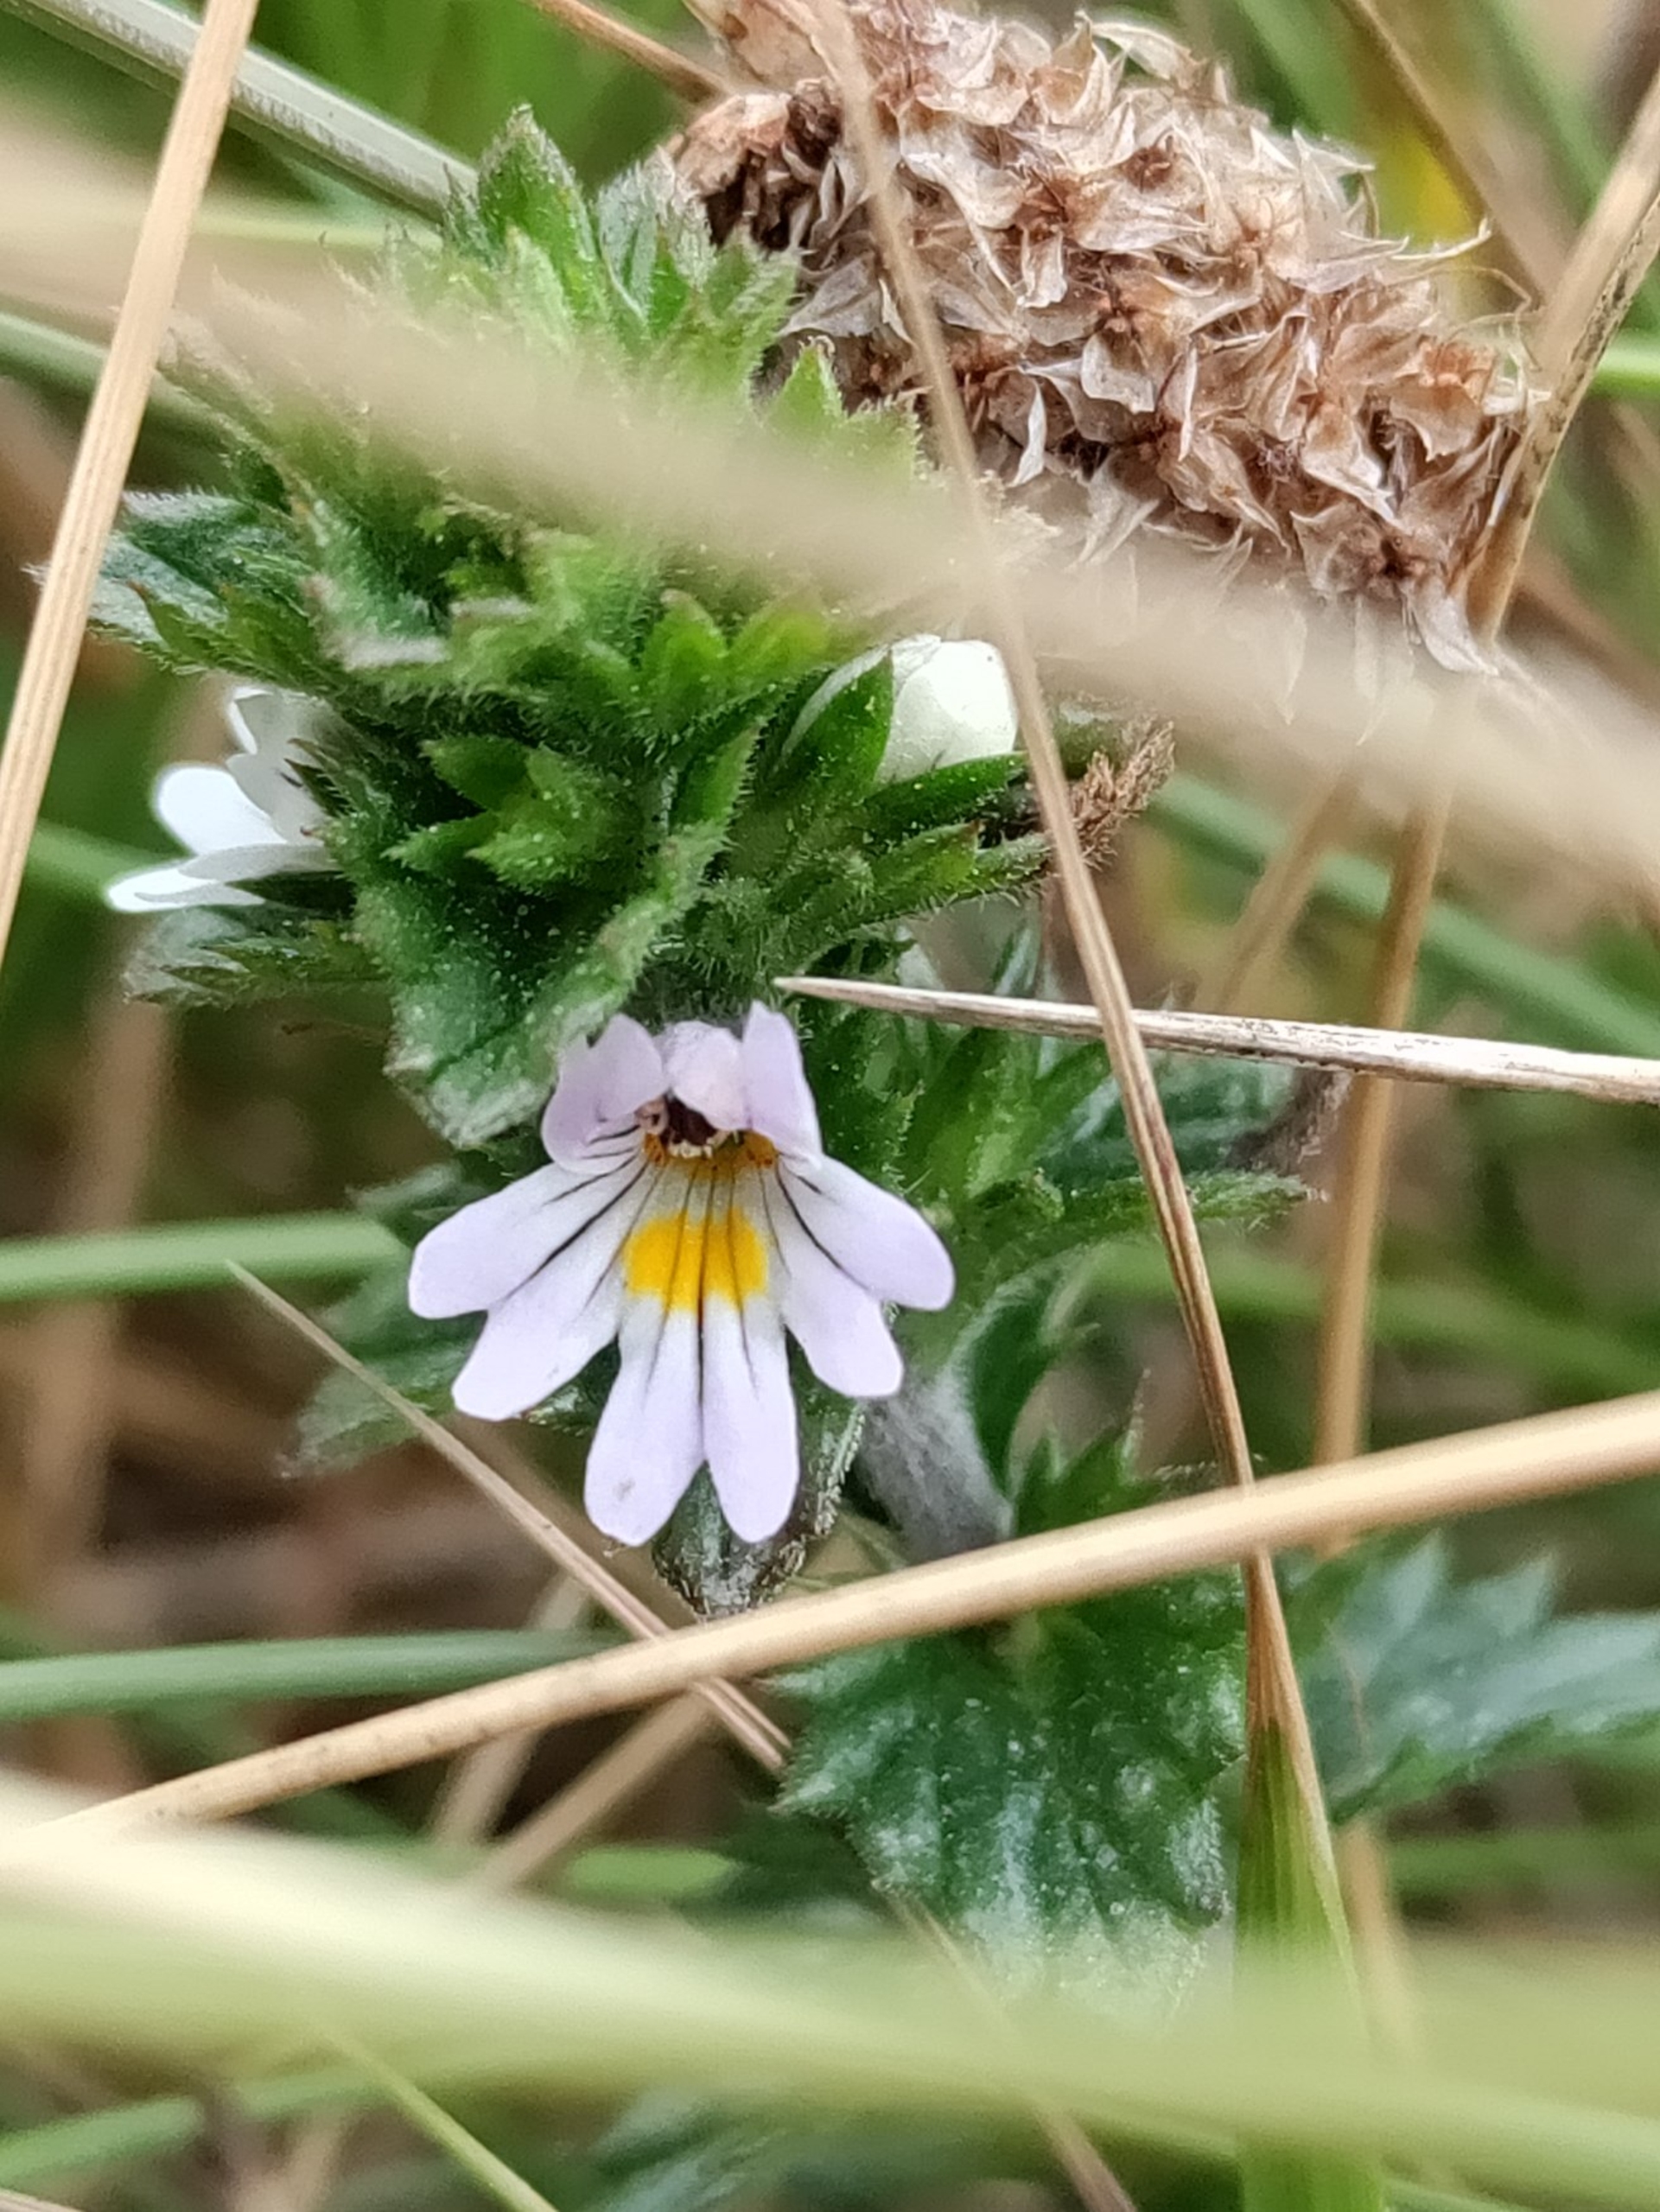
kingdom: Plantae
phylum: Tracheophyta
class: Magnoliopsida
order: Lamiales
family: Orobanchaceae
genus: Euphrasia
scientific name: Euphrasia stricta
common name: Spids øjentrøst
